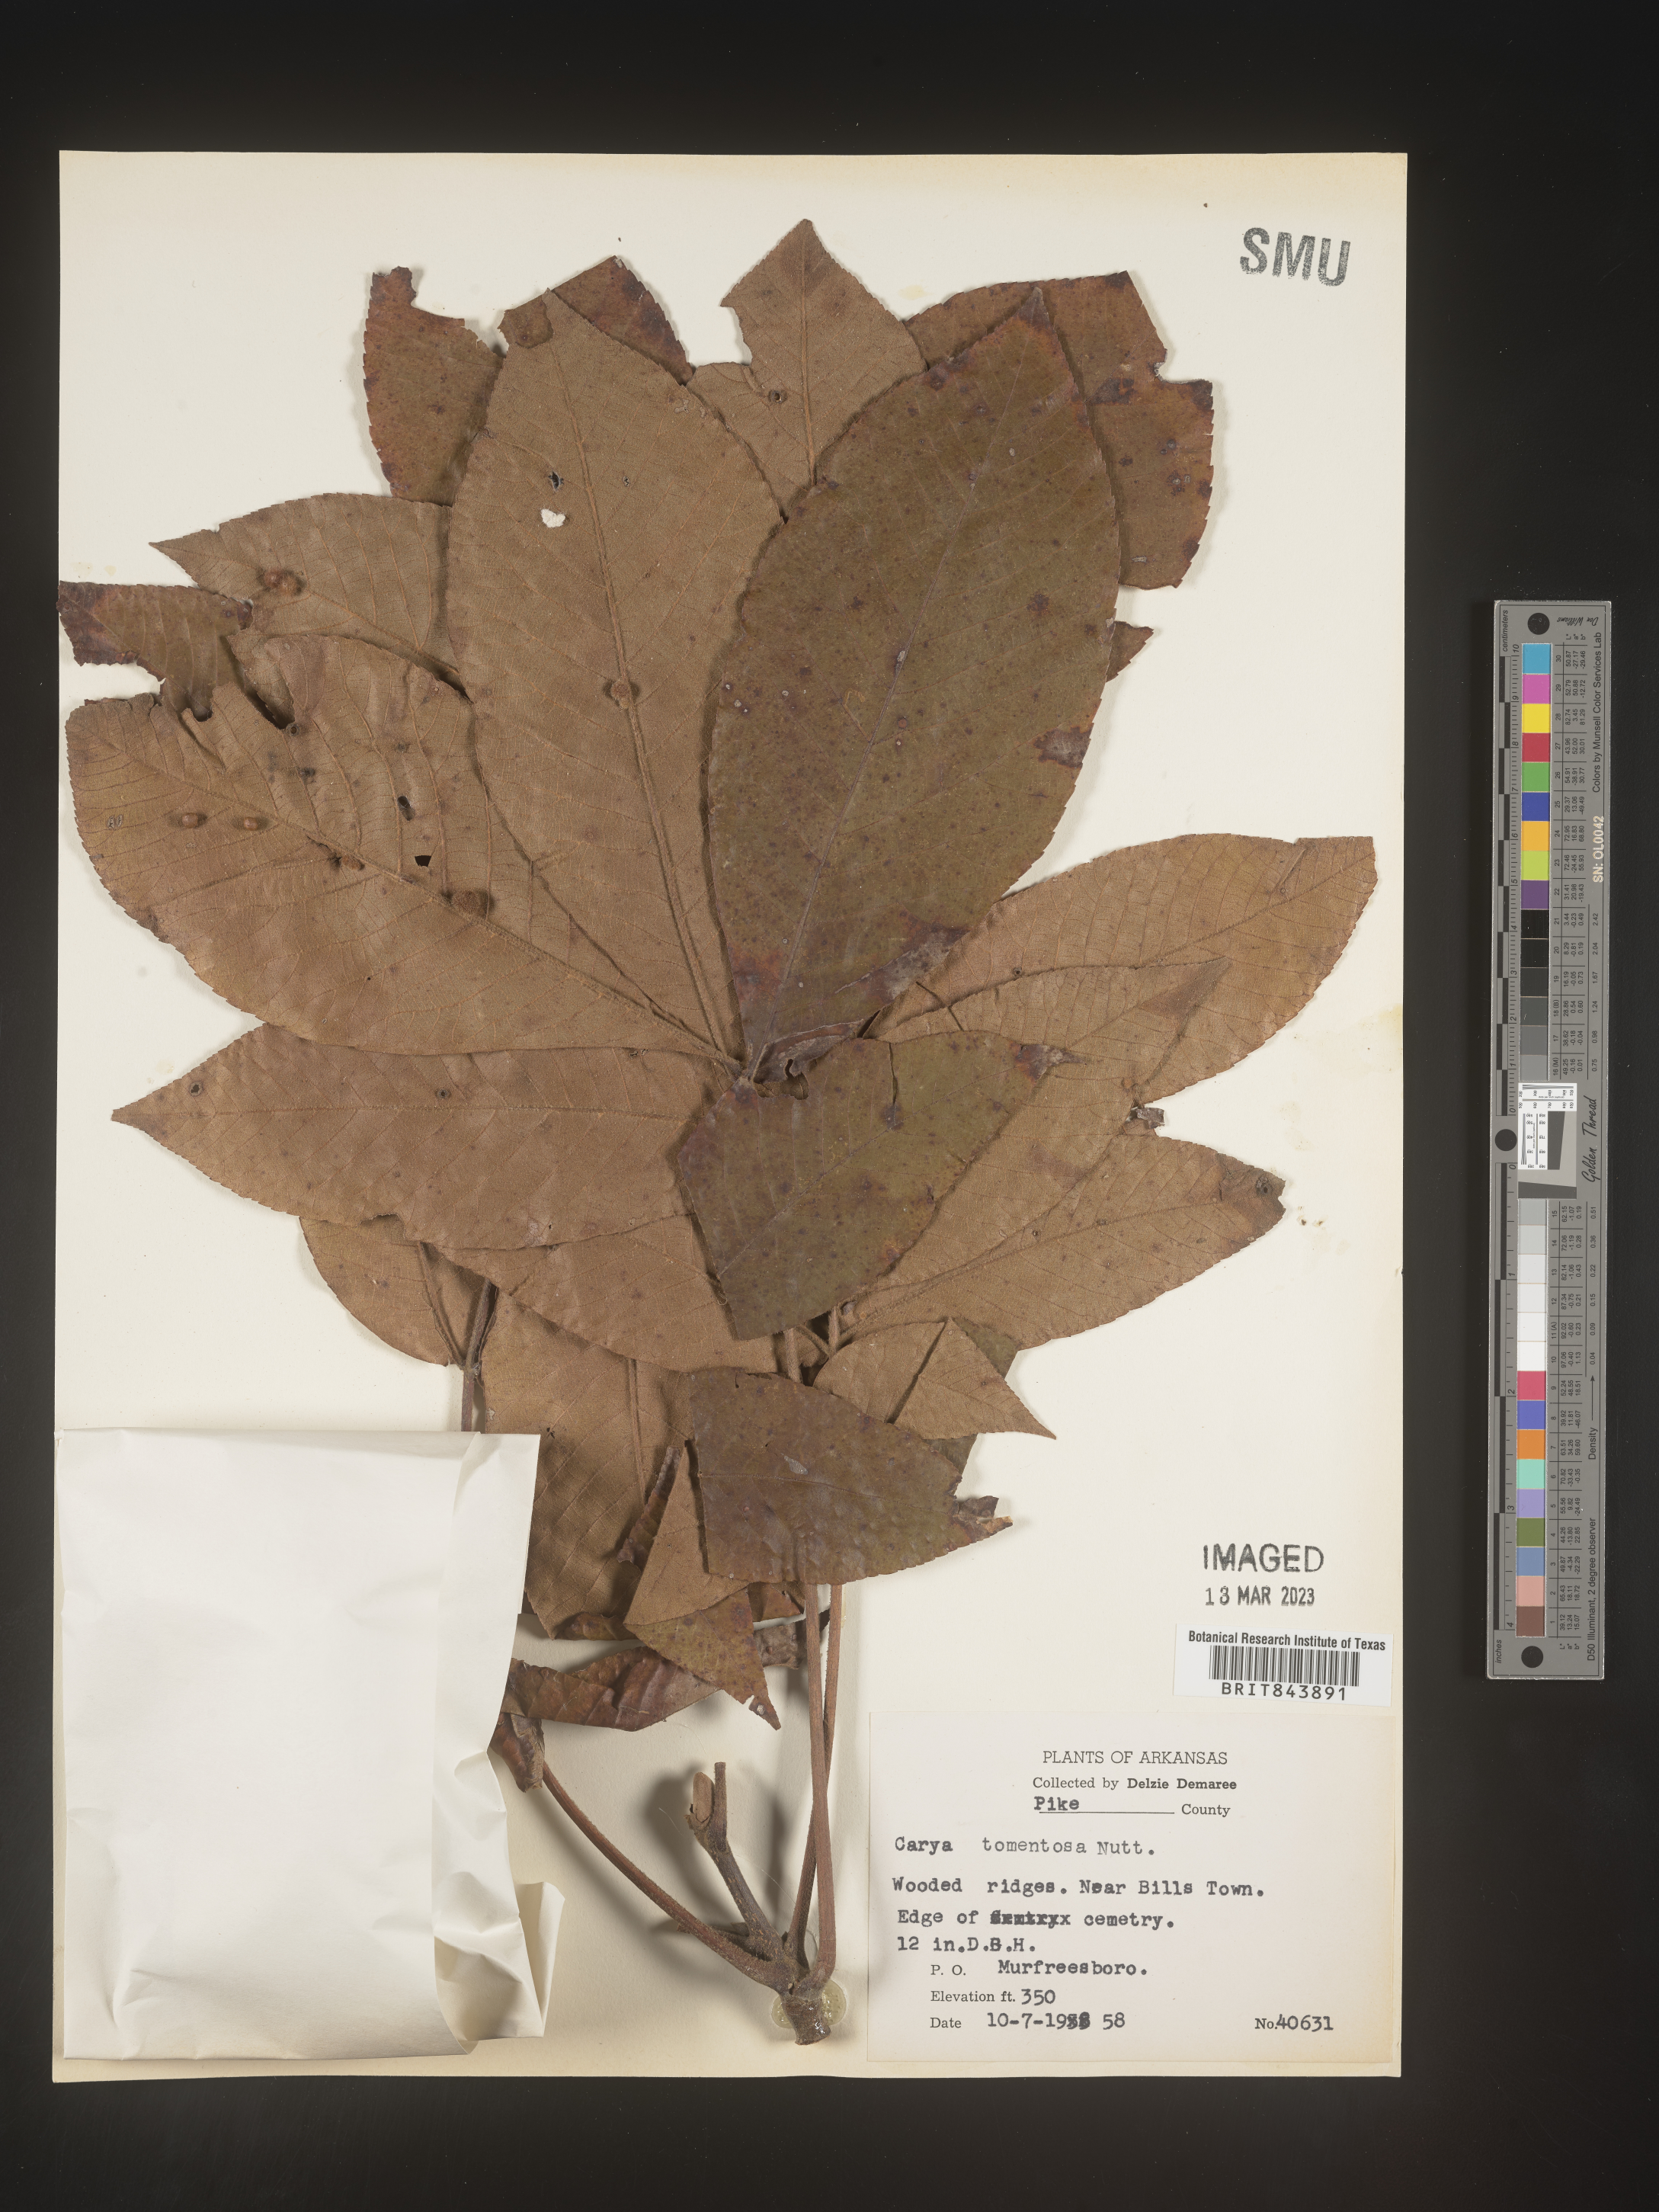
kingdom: Plantae
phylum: Tracheophyta
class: Magnoliopsida
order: Fagales
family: Juglandaceae
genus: Carya
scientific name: Carya alba
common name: Mockernut hickory
